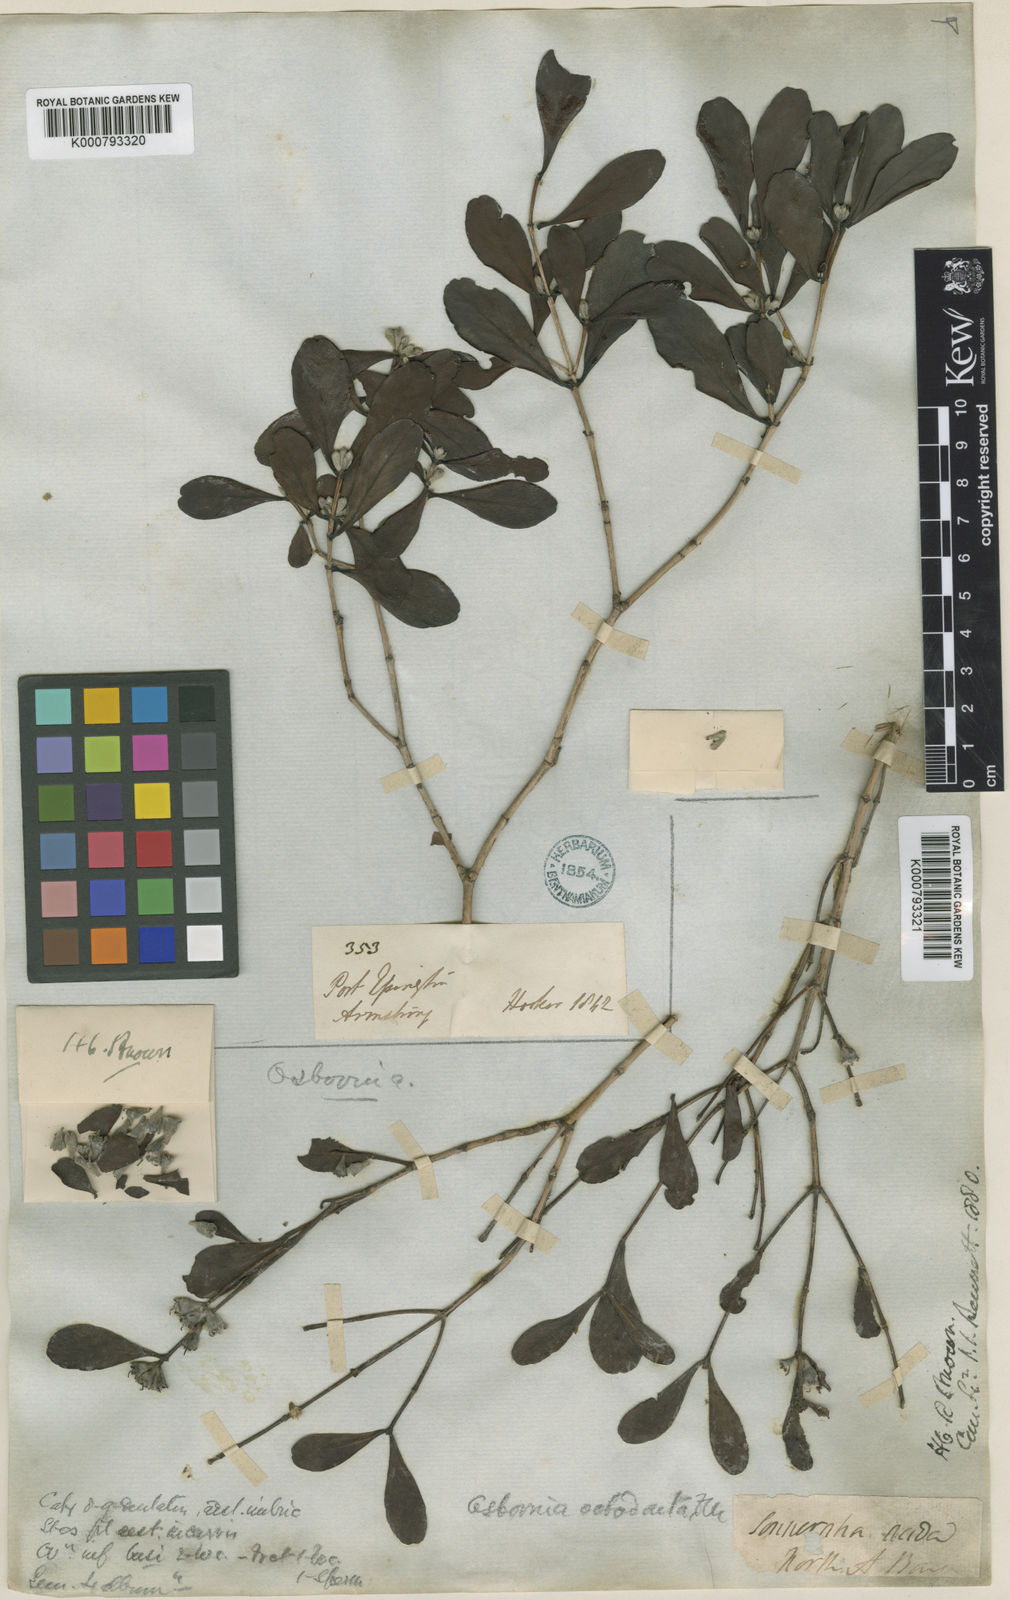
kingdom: Plantae
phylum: Tracheophyta
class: Magnoliopsida
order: Myrtales
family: Myrtaceae
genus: Osbornia
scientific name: Osbornia octodonta
